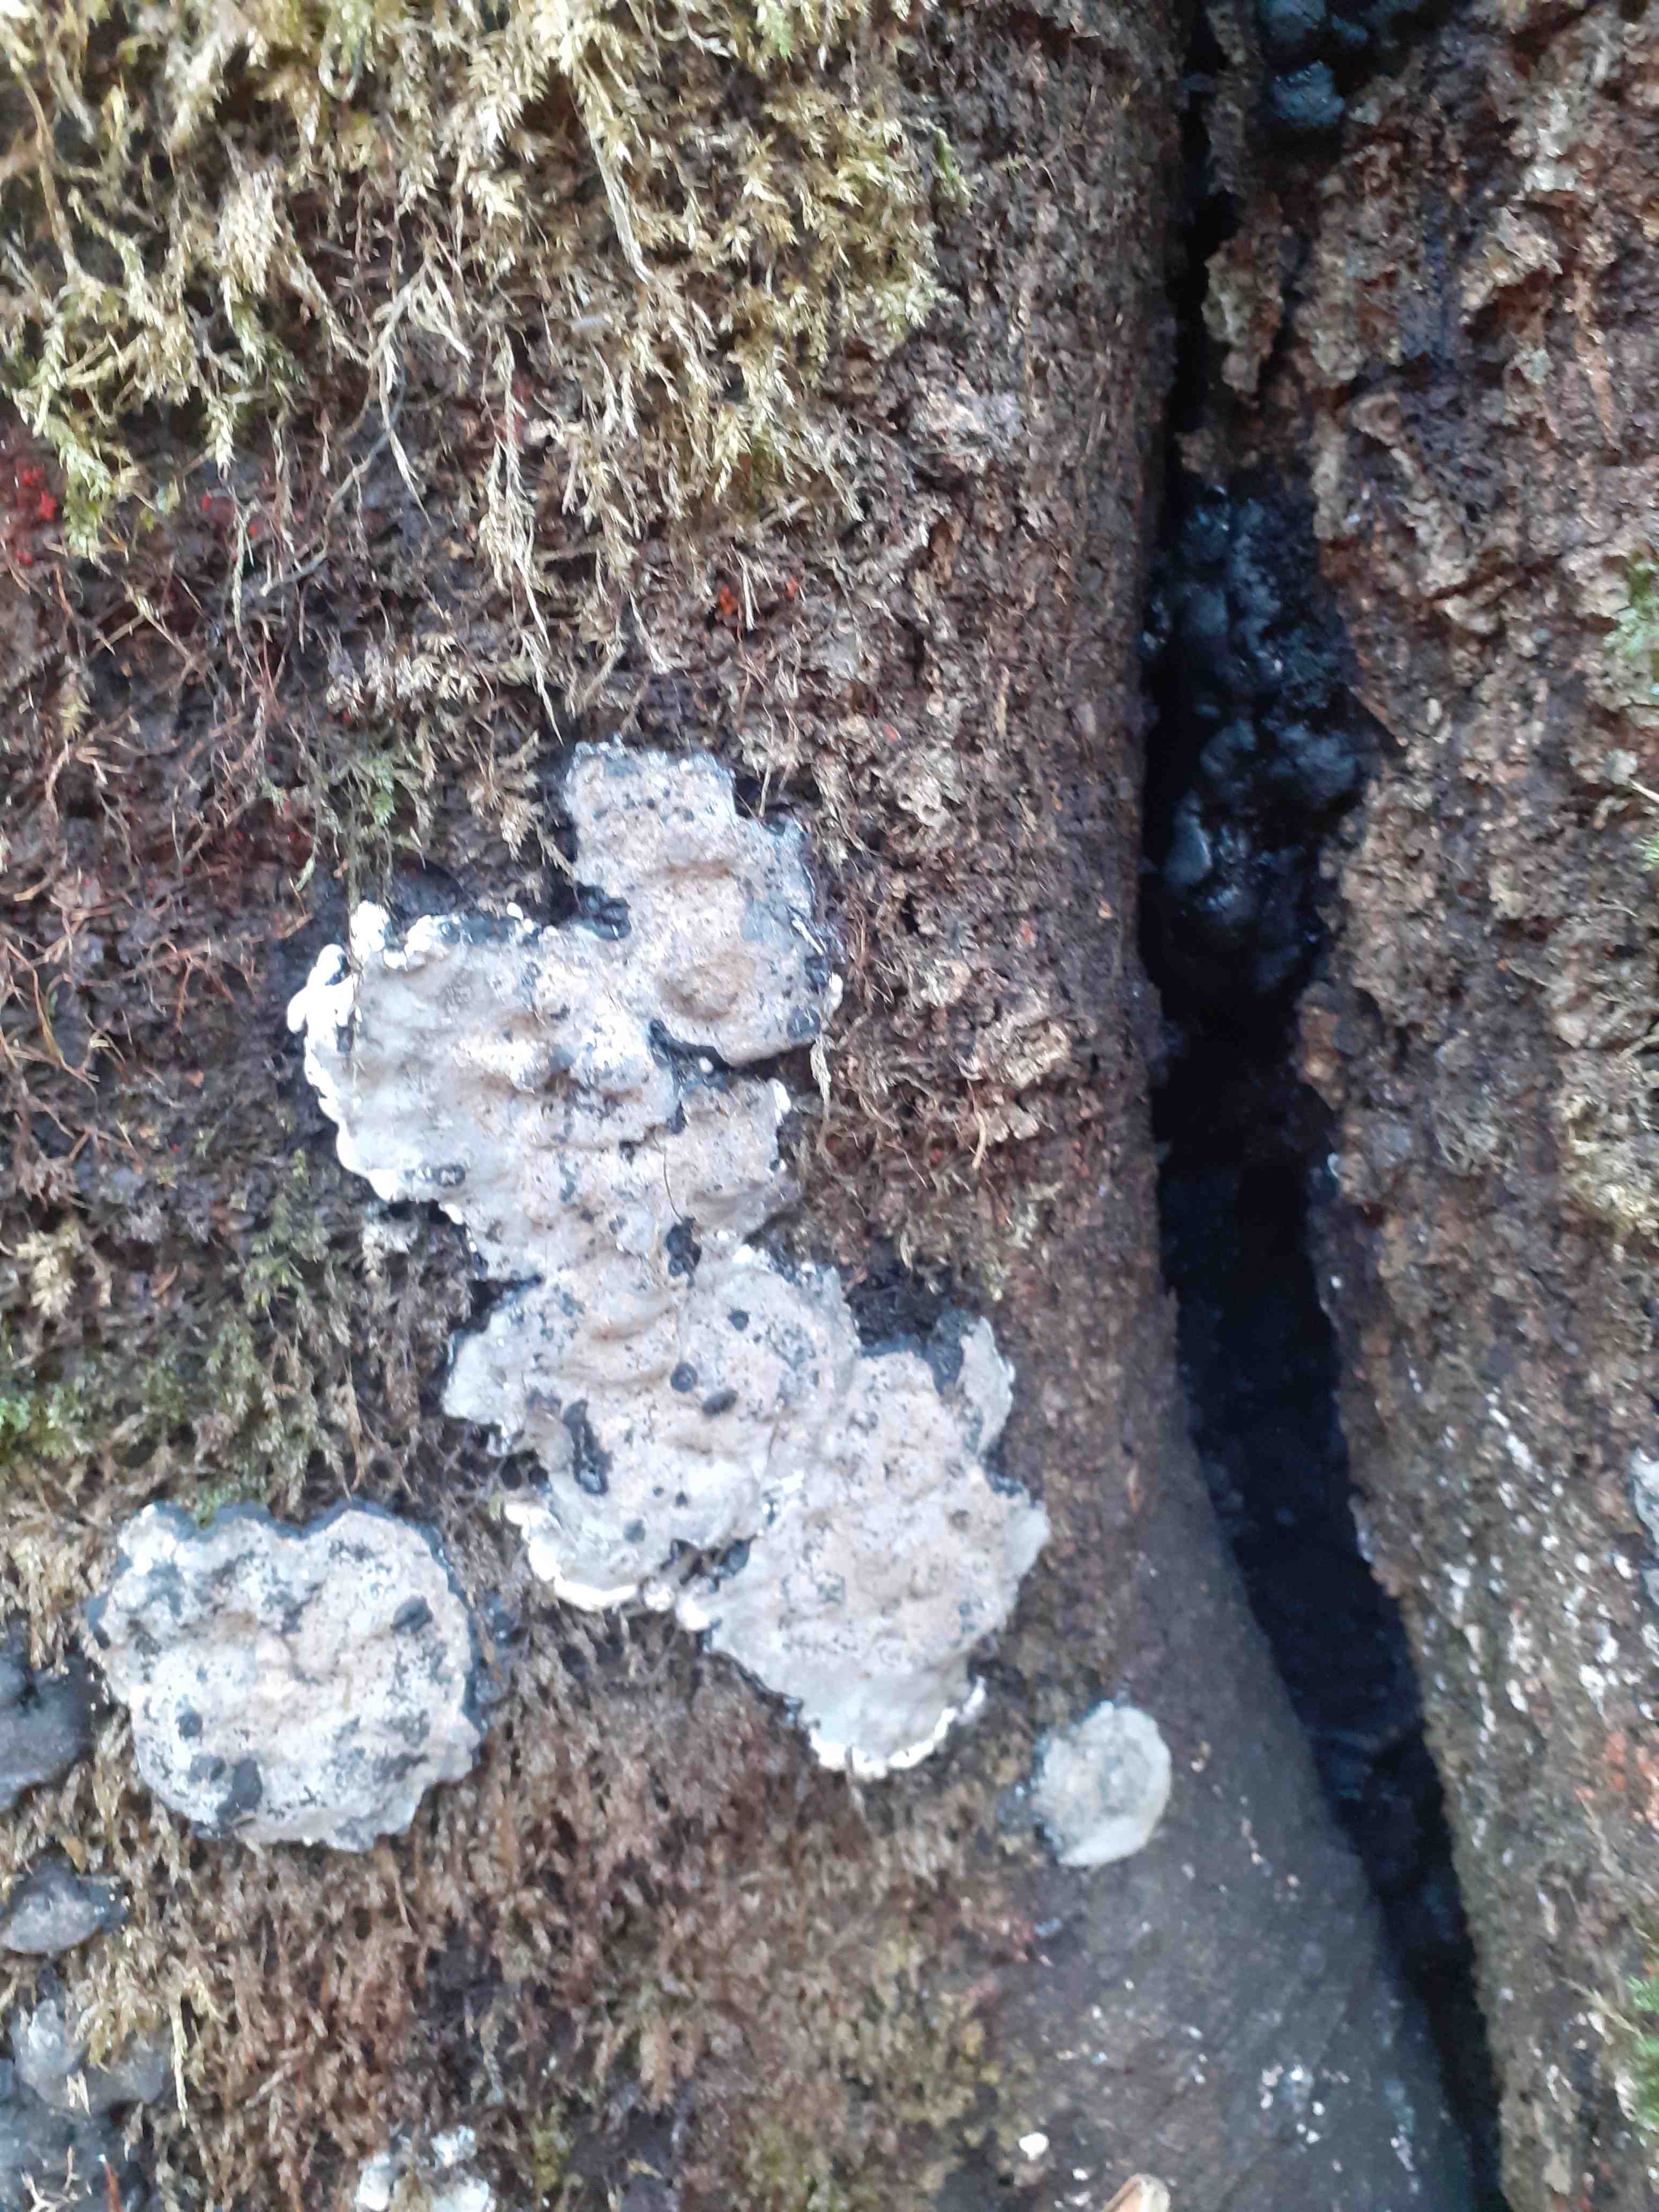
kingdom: Fungi
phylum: Ascomycota
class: Sordariomycetes
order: Xylariales
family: Xylariaceae
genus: Kretzschmaria
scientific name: Kretzschmaria deusta
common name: stor kulsvamp
